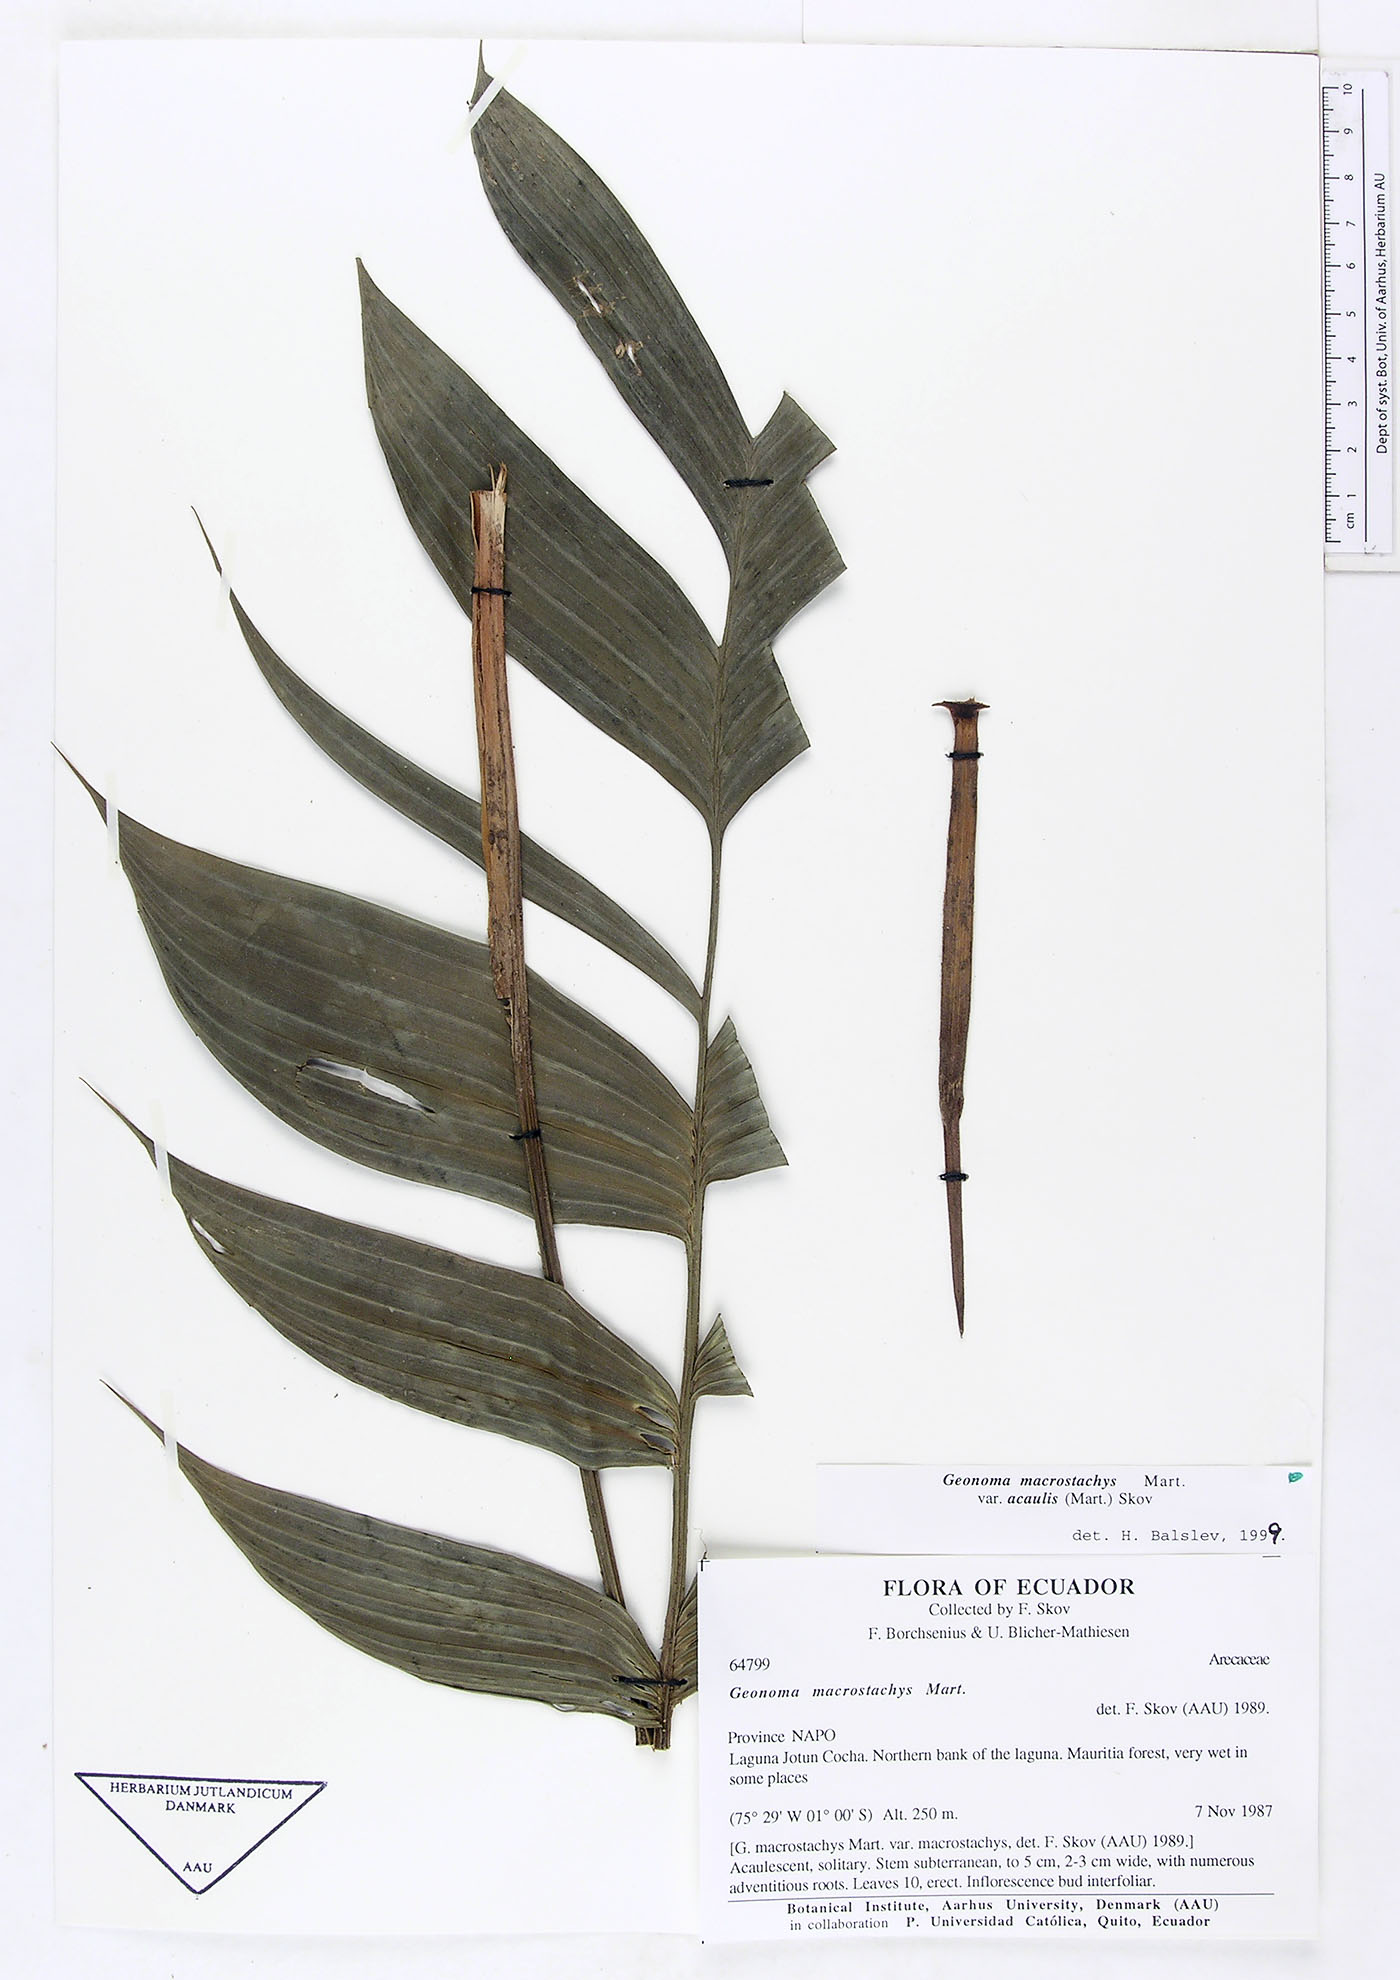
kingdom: Plantae
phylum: Tracheophyta
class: Liliopsida
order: Arecales
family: Arecaceae
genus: Geonoma
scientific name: Geonoma macrostachys
